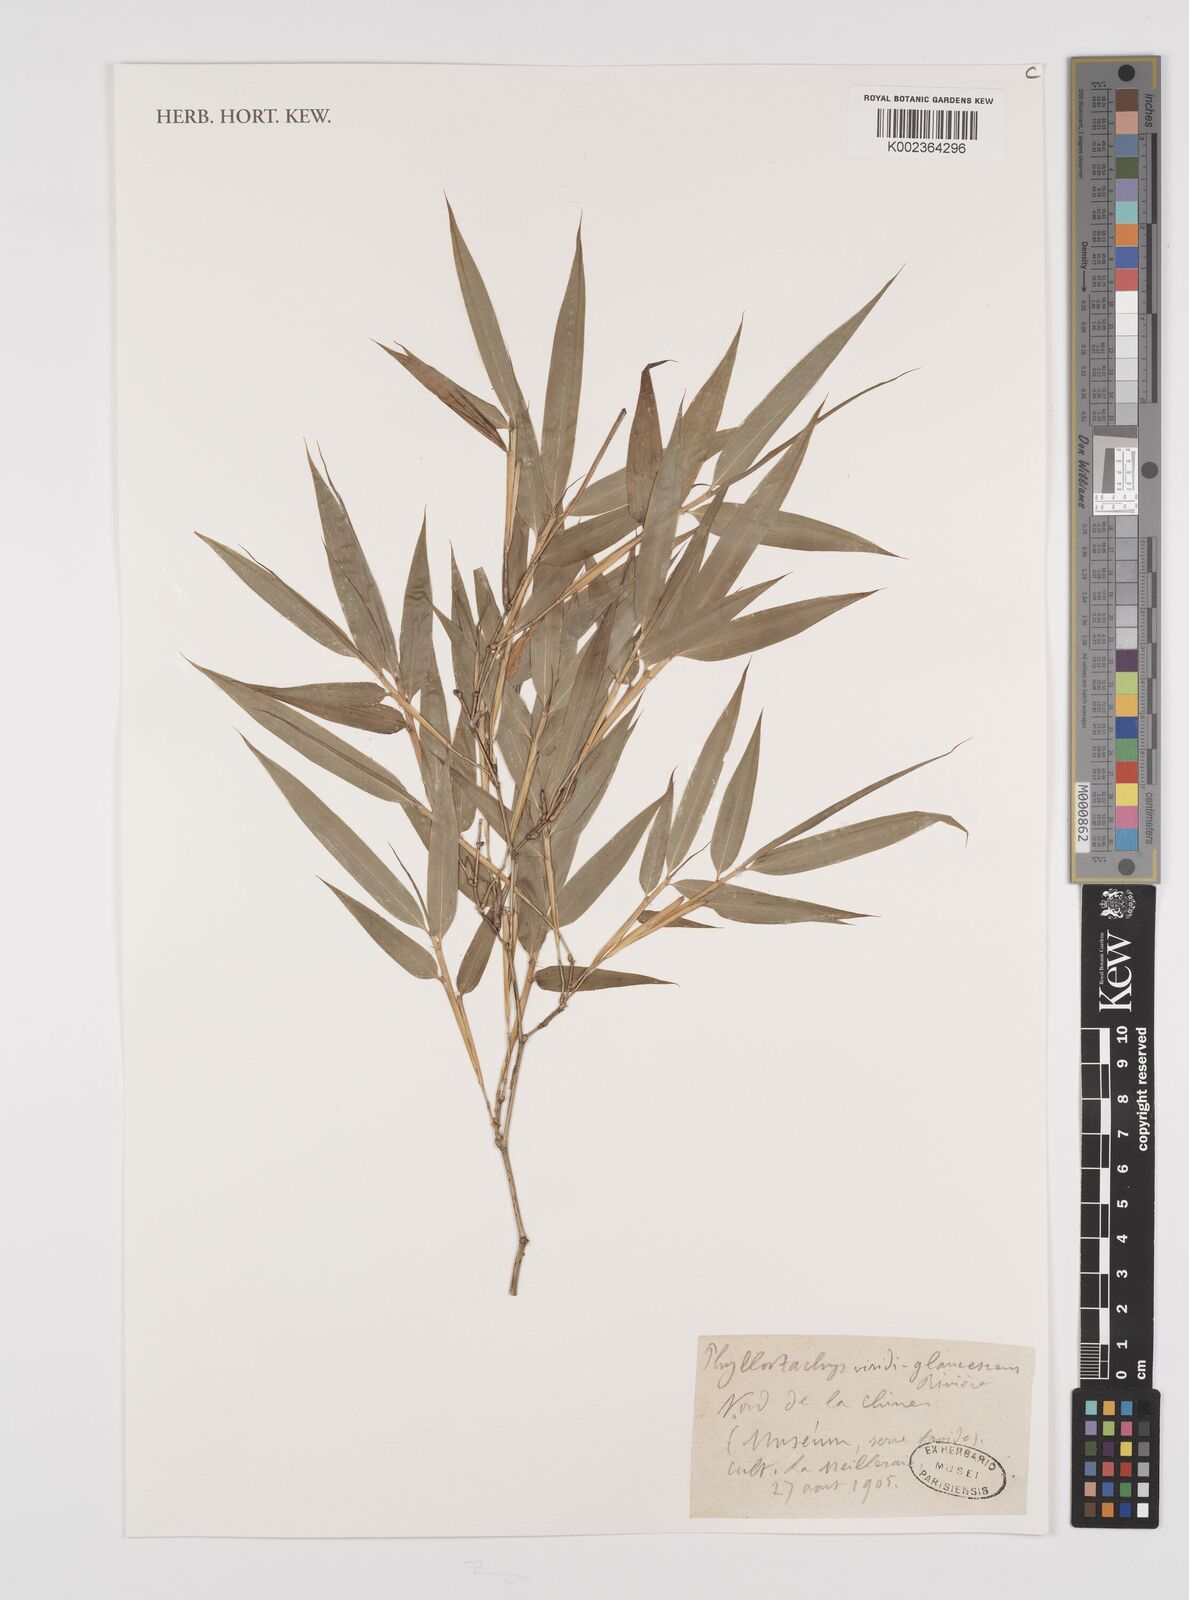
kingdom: Plantae
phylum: Tracheophyta
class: Liliopsida
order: Poales
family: Poaceae
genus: Phyllostachys
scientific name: Phyllostachys viridiglaucescens
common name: Greenwax golden bamboo
